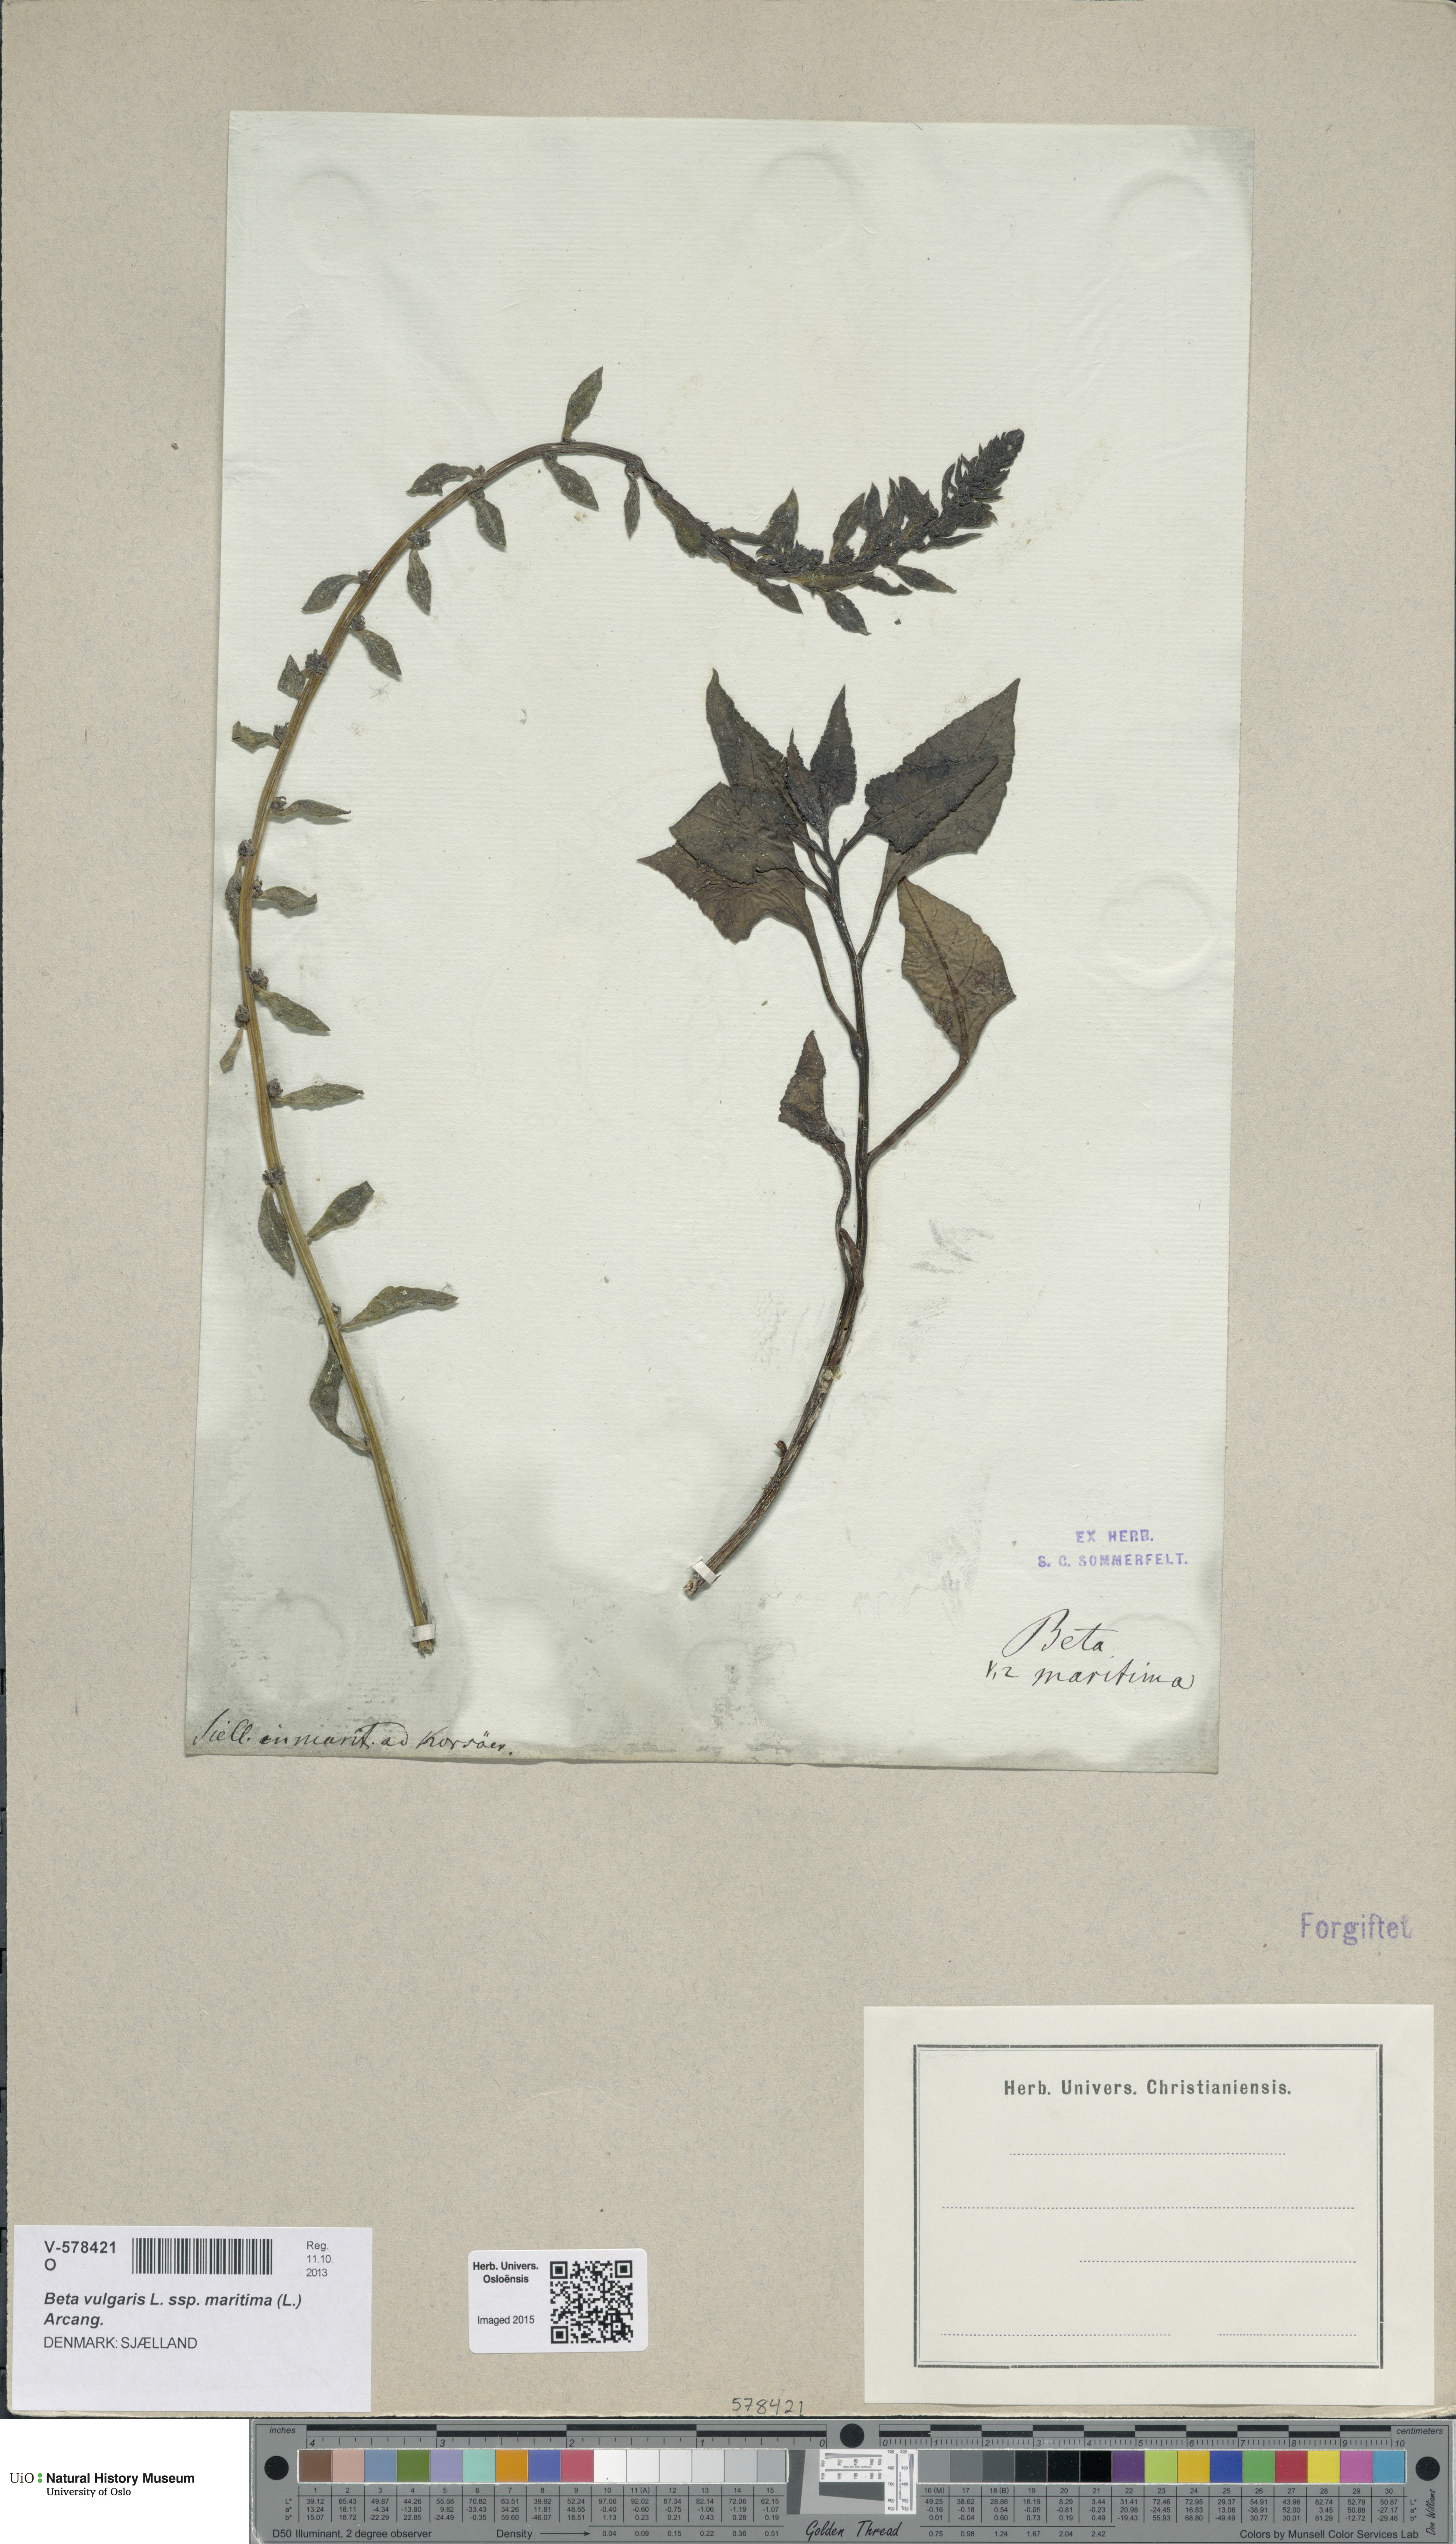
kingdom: Plantae
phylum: Tracheophyta
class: Magnoliopsida
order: Caryophyllales
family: Amaranthaceae
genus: Beta
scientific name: Beta maritima
